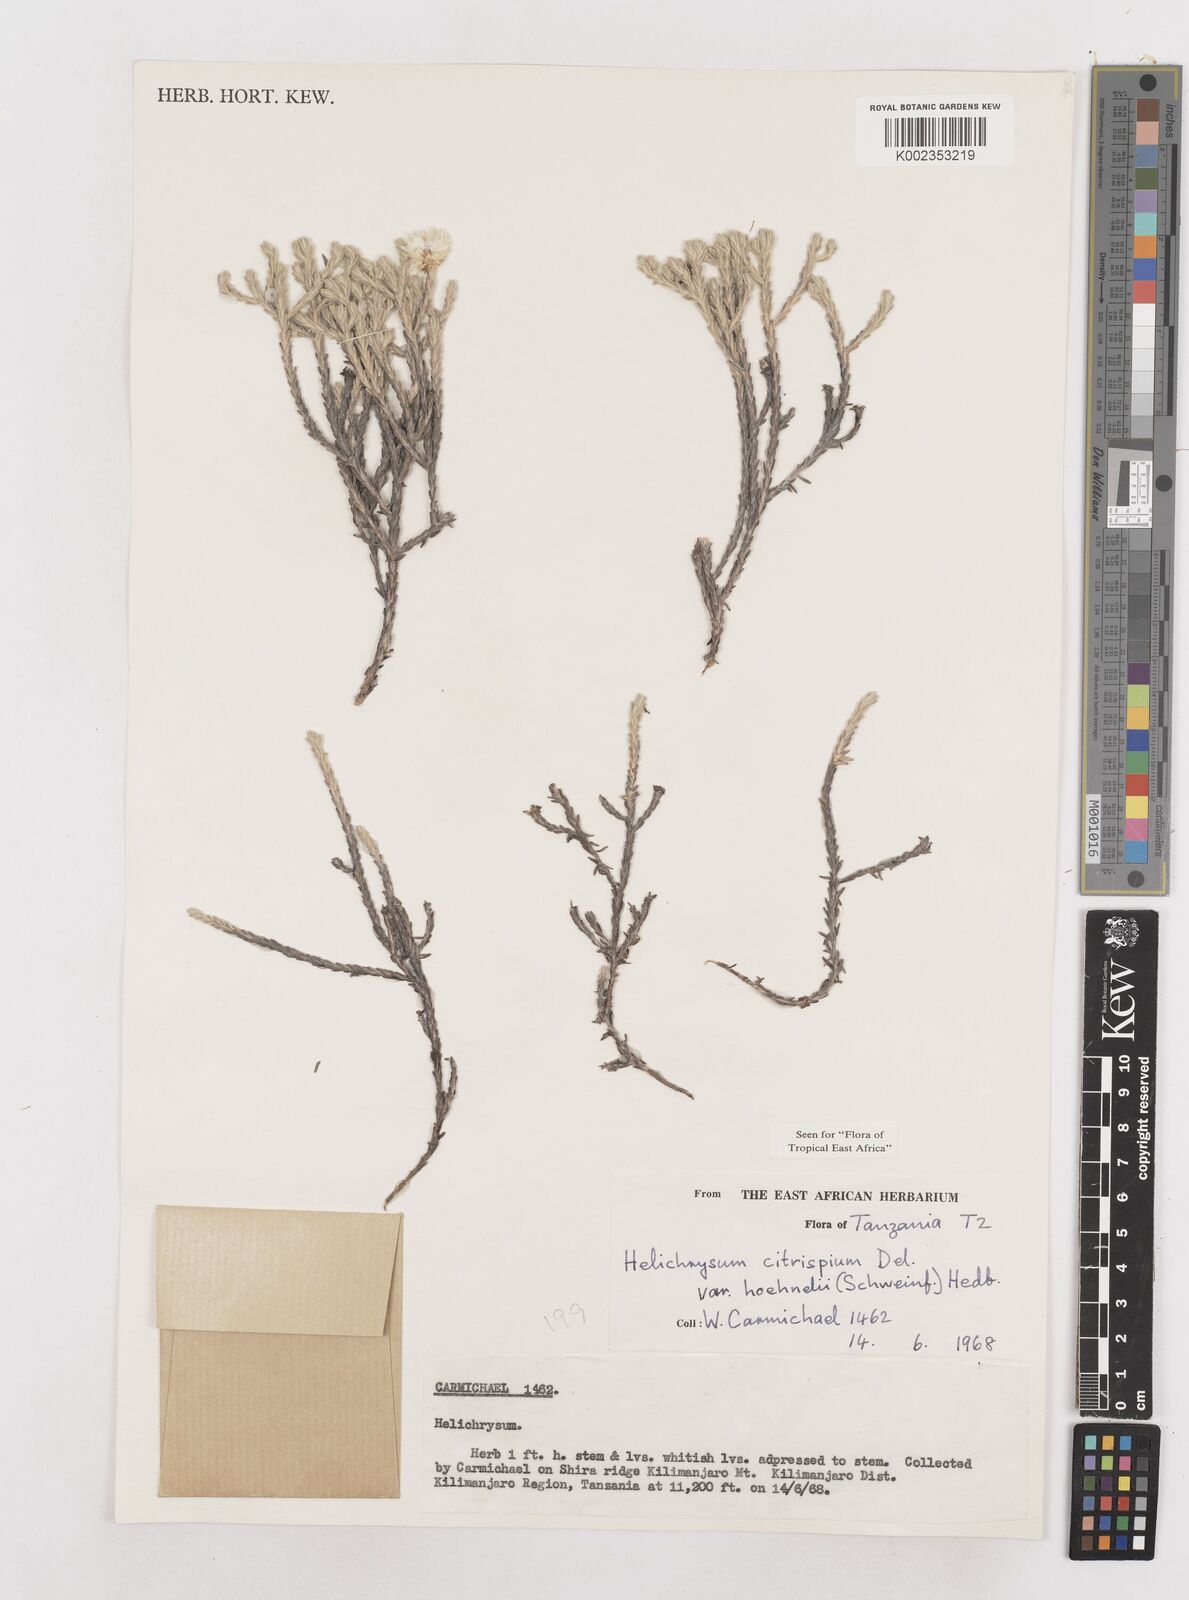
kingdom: Plantae
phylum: Tracheophyta
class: Magnoliopsida
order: Asterales
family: Asteraceae
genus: Helichrysum
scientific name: Helichrysum citrispinum
